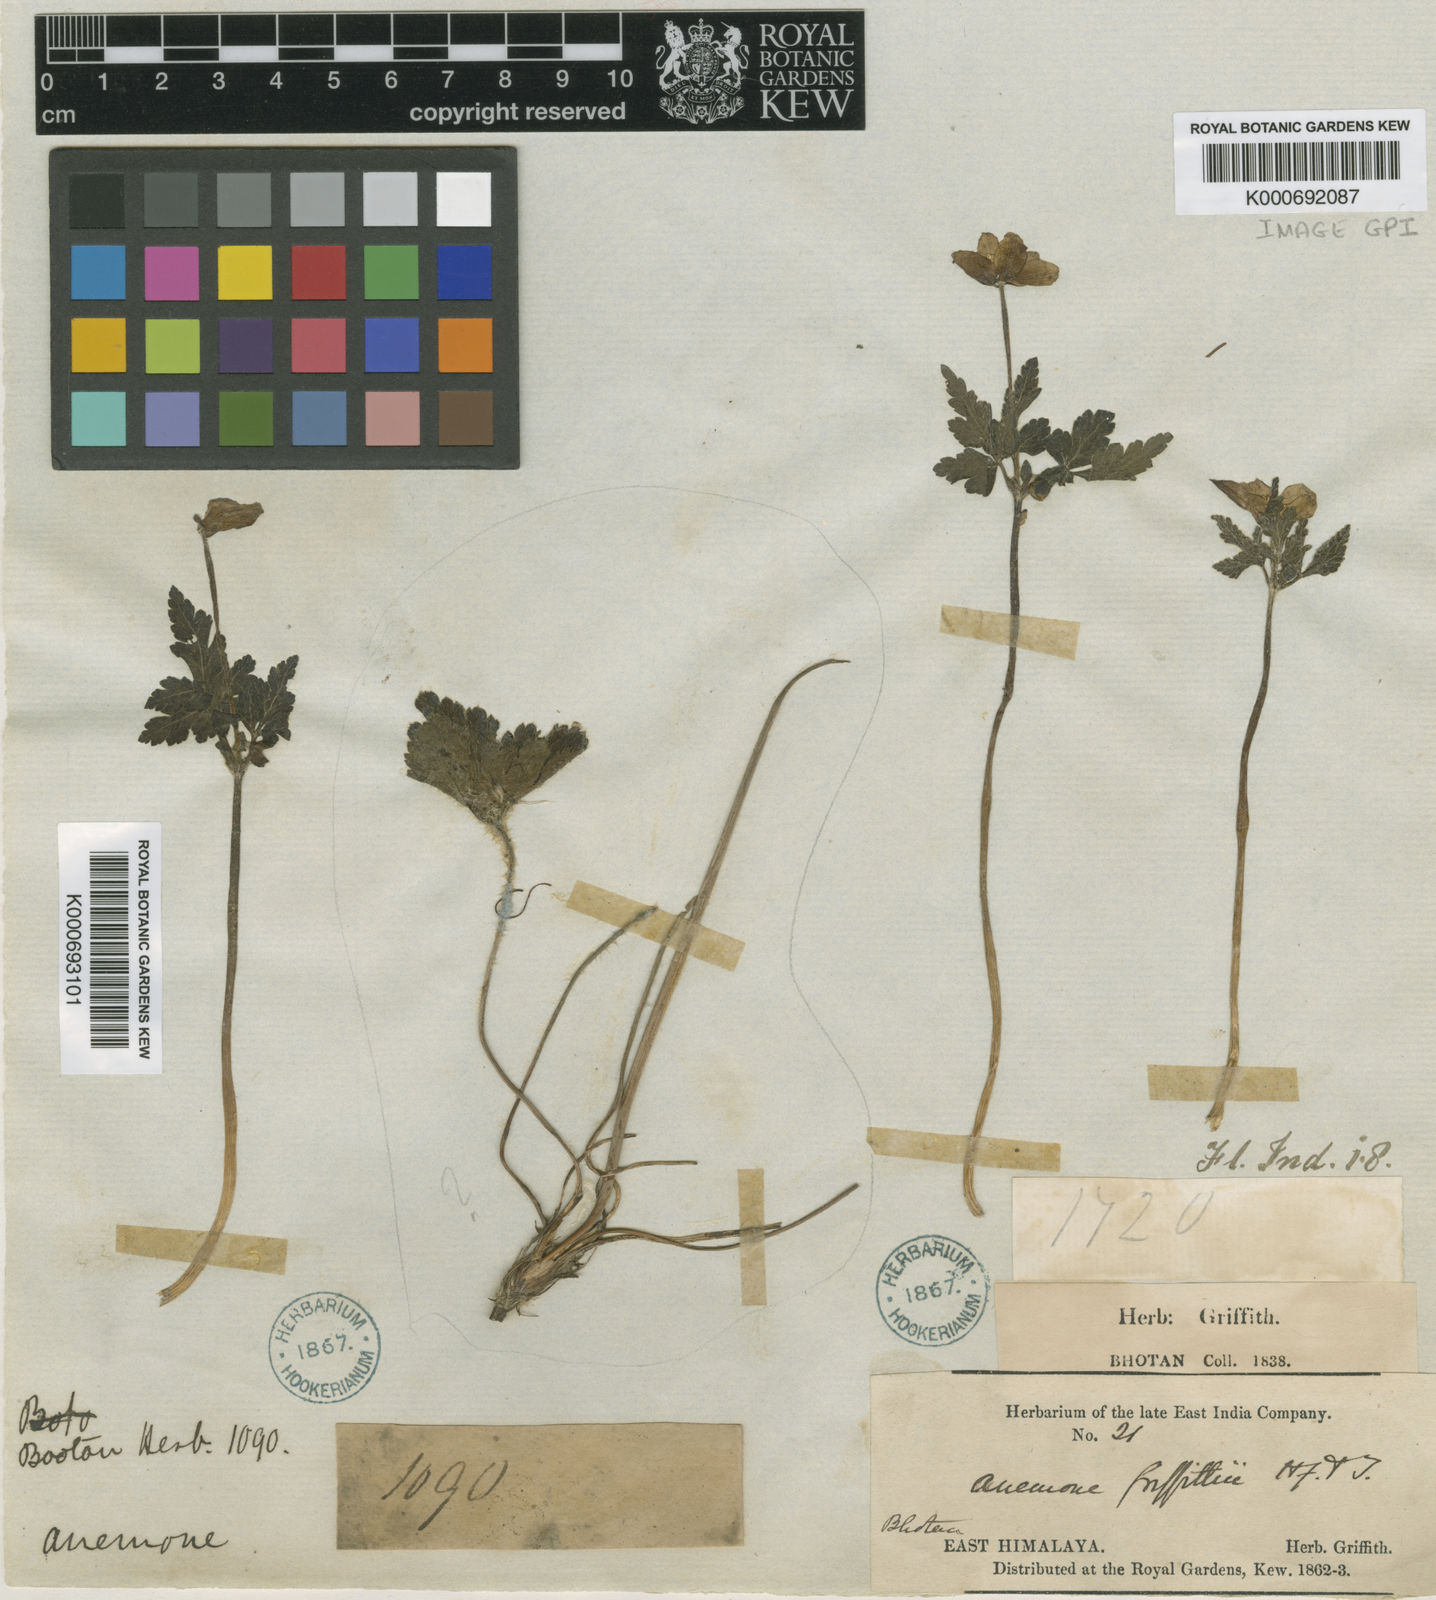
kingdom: Plantae
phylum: Tracheophyta
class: Magnoliopsida
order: Ranunculales
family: Ranunculaceae
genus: Anemone
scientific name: Anemone griffithii
